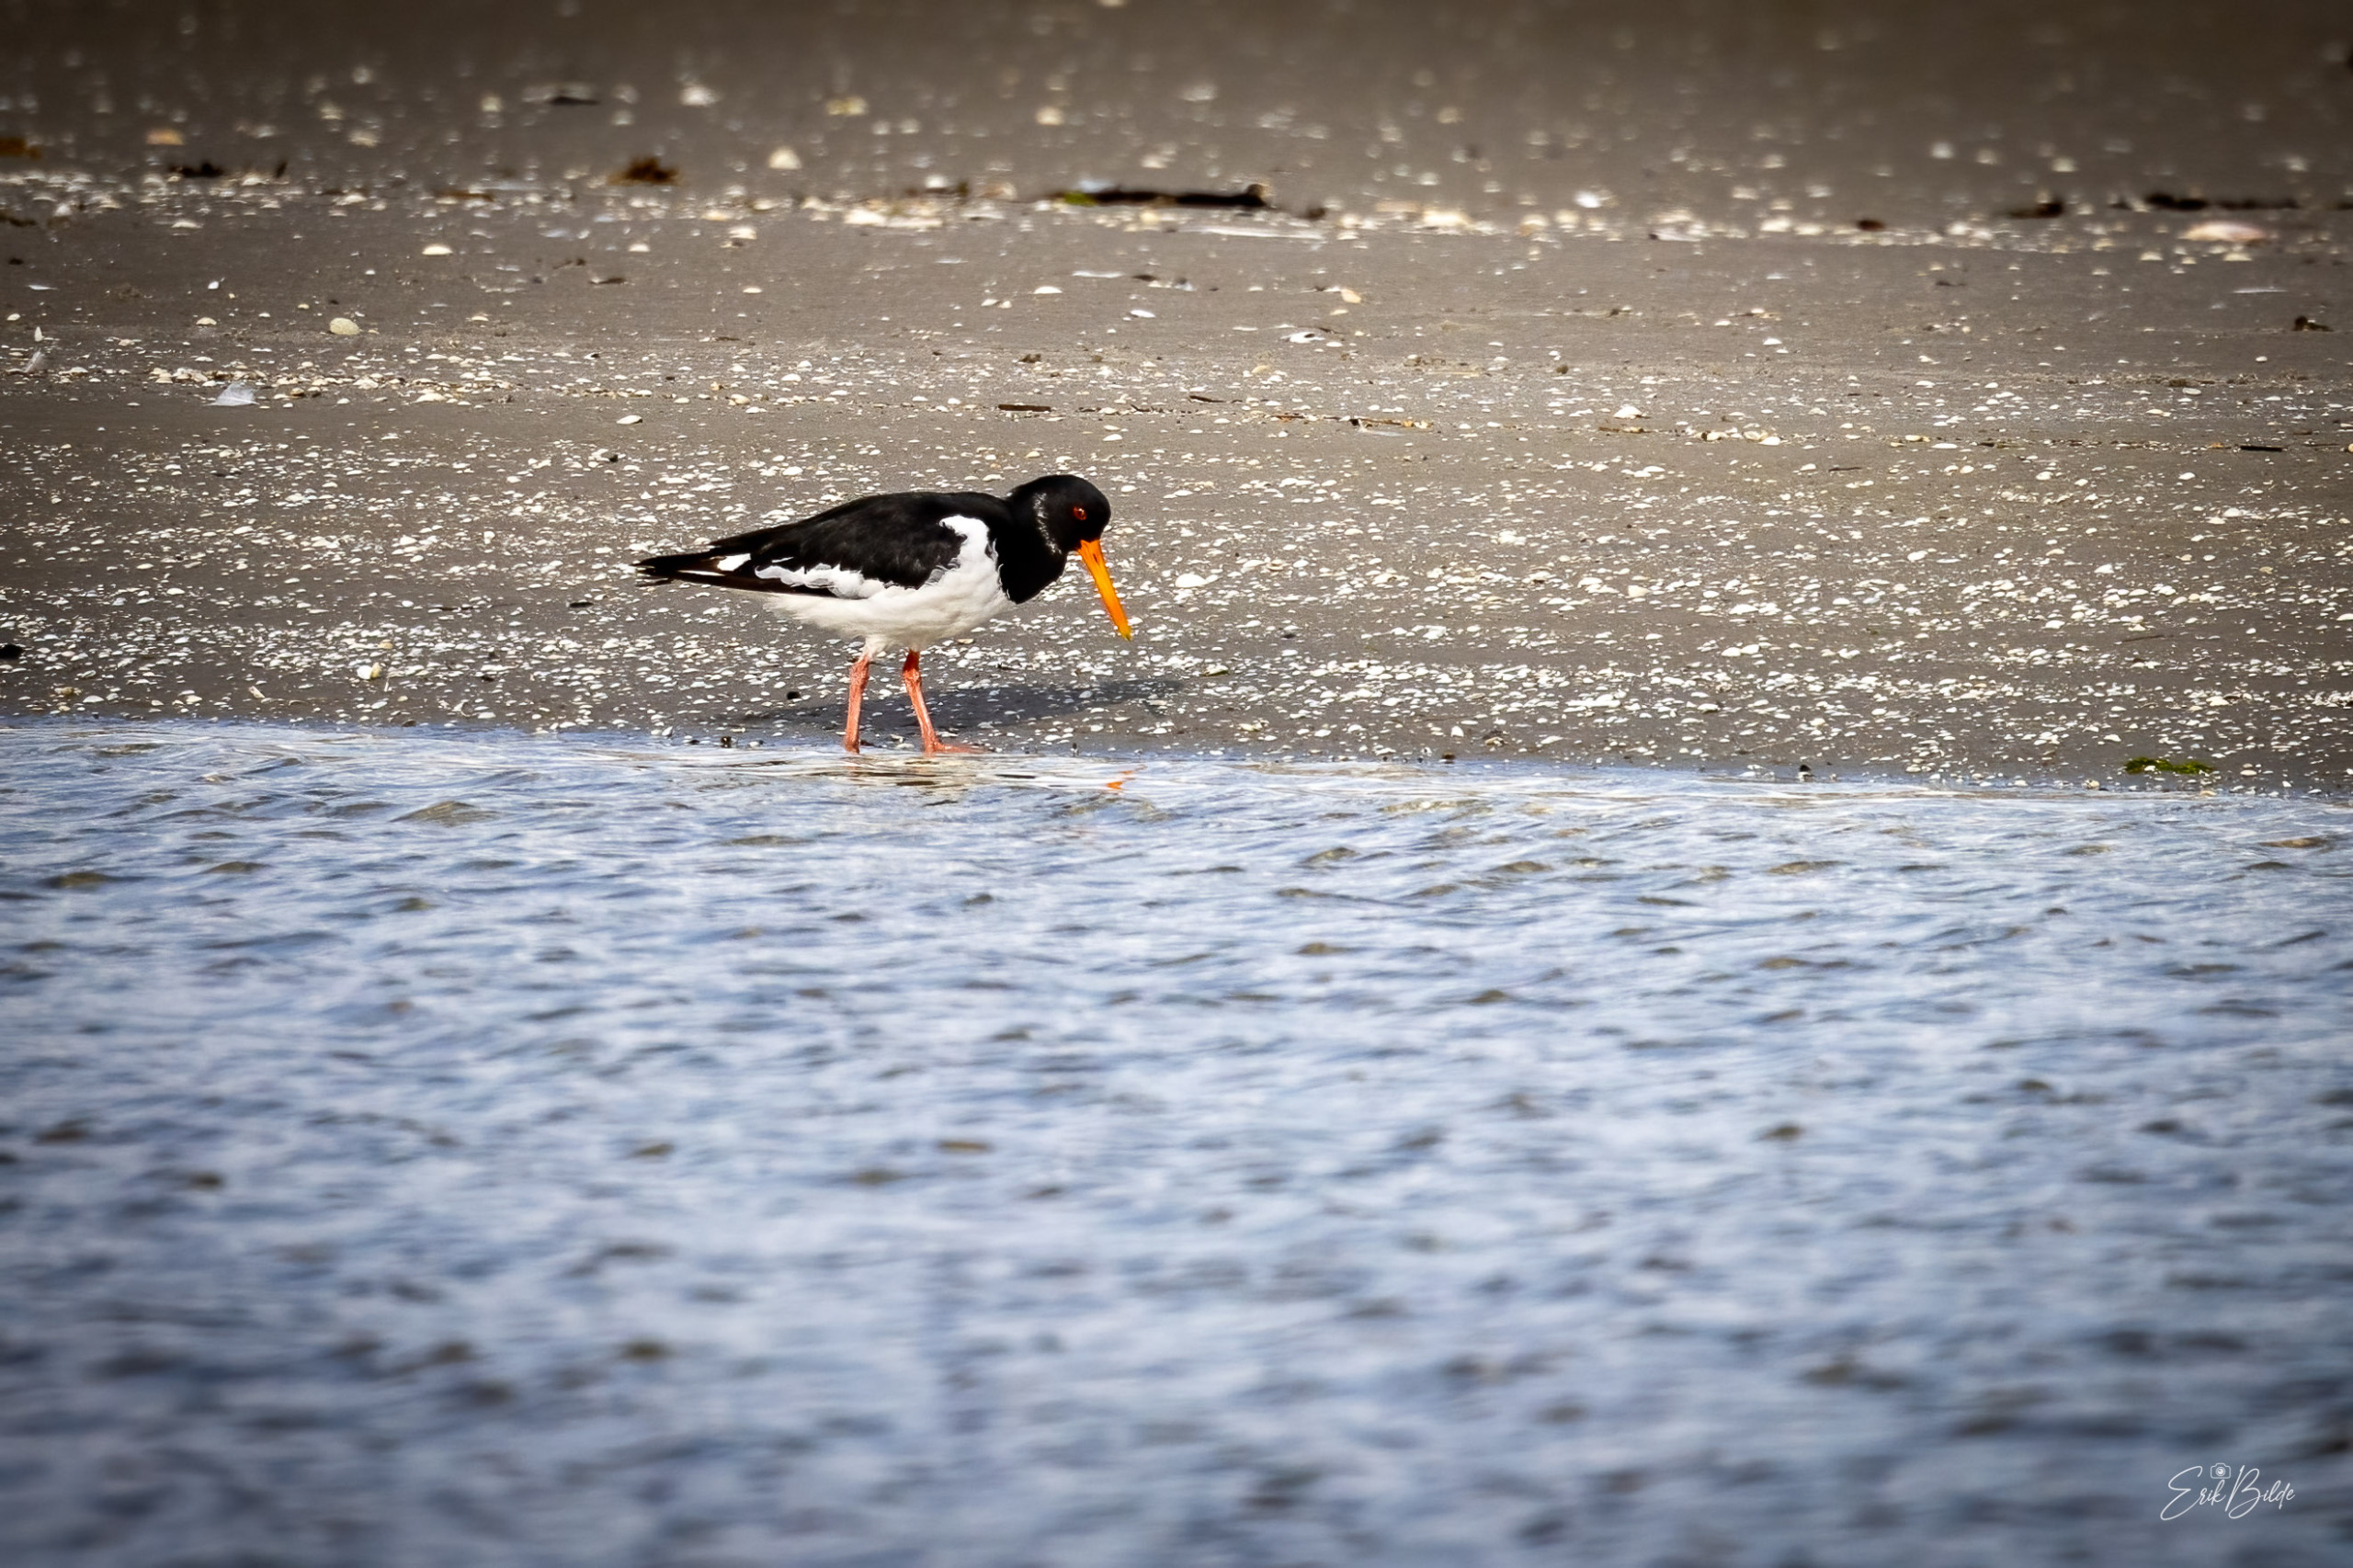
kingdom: Animalia
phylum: Chordata
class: Aves
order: Charadriiformes
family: Haematopodidae
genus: Haematopus
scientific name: Haematopus ostralegus
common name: Strandskade
